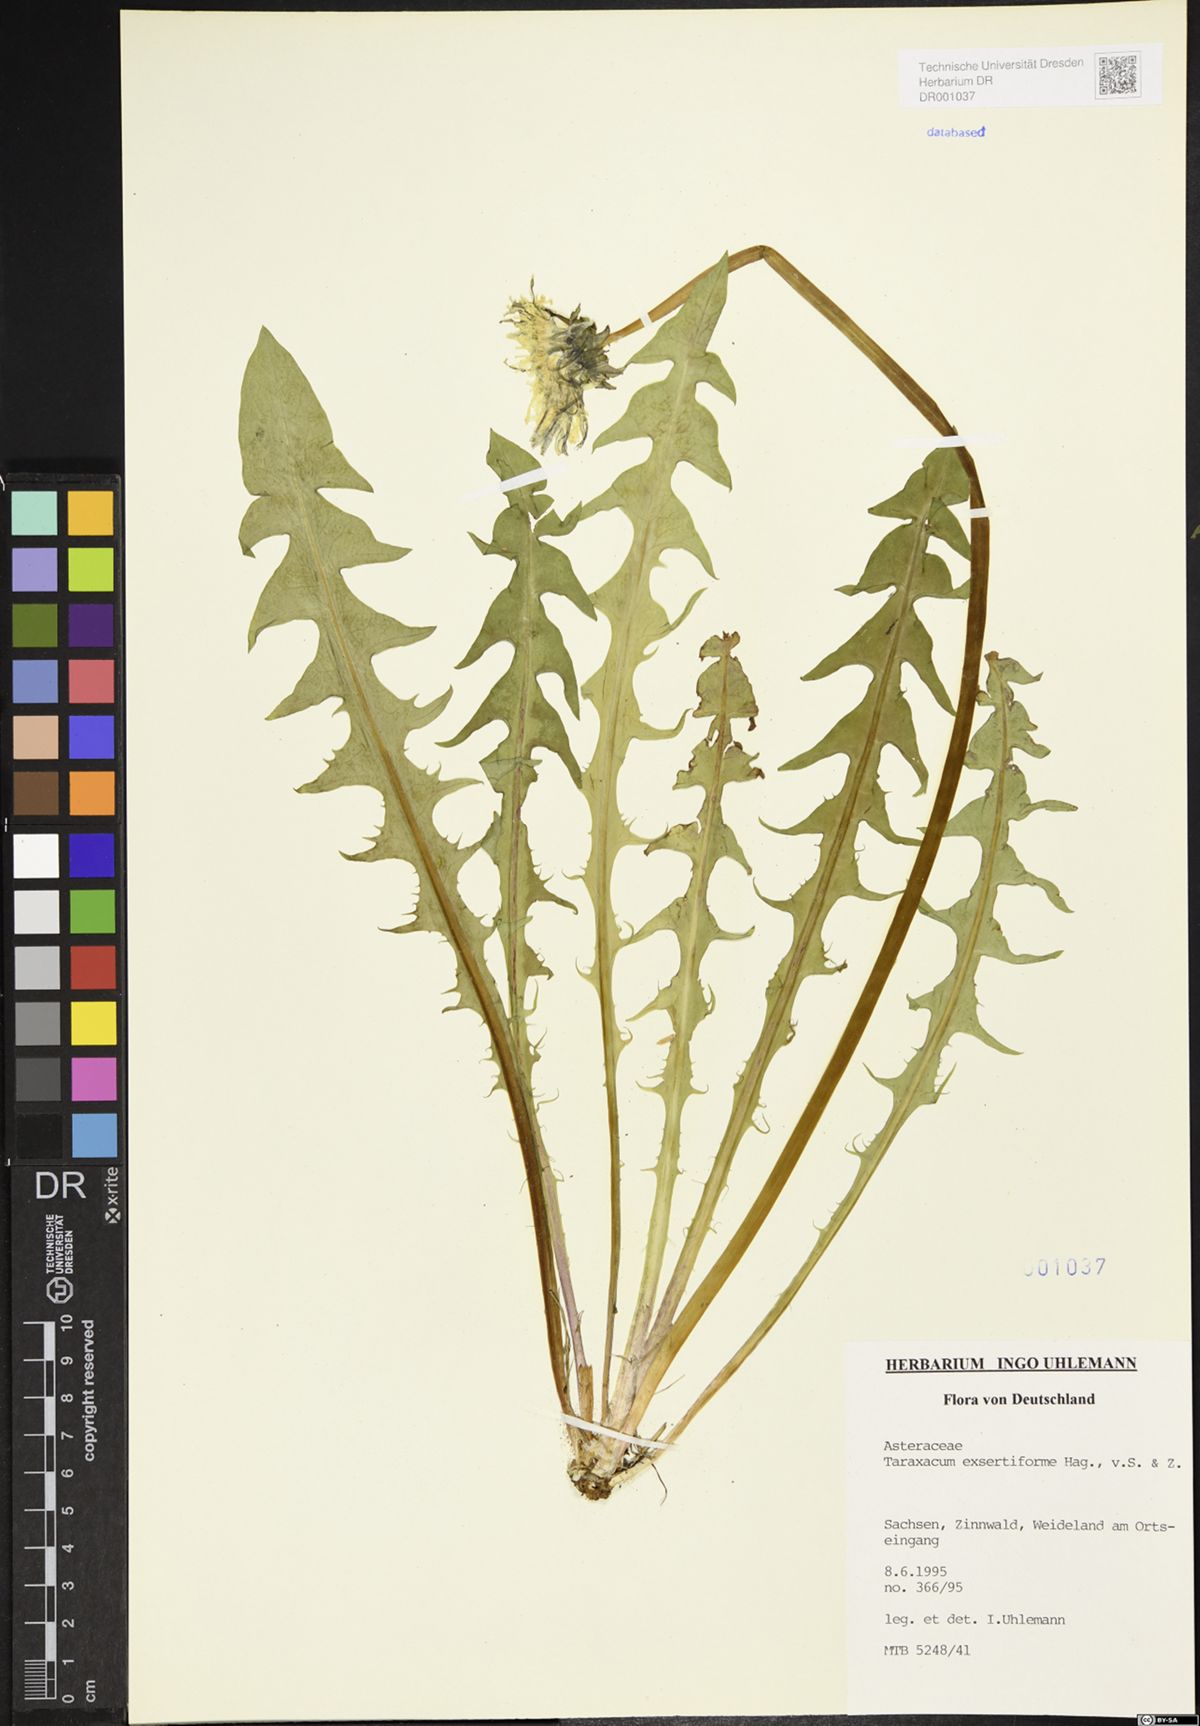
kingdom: Plantae
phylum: Tracheophyta
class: Magnoliopsida
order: Asterales
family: Asteraceae
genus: Taraxacum
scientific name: Taraxacum exsertiforme
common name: Erect-bracted dandelion
